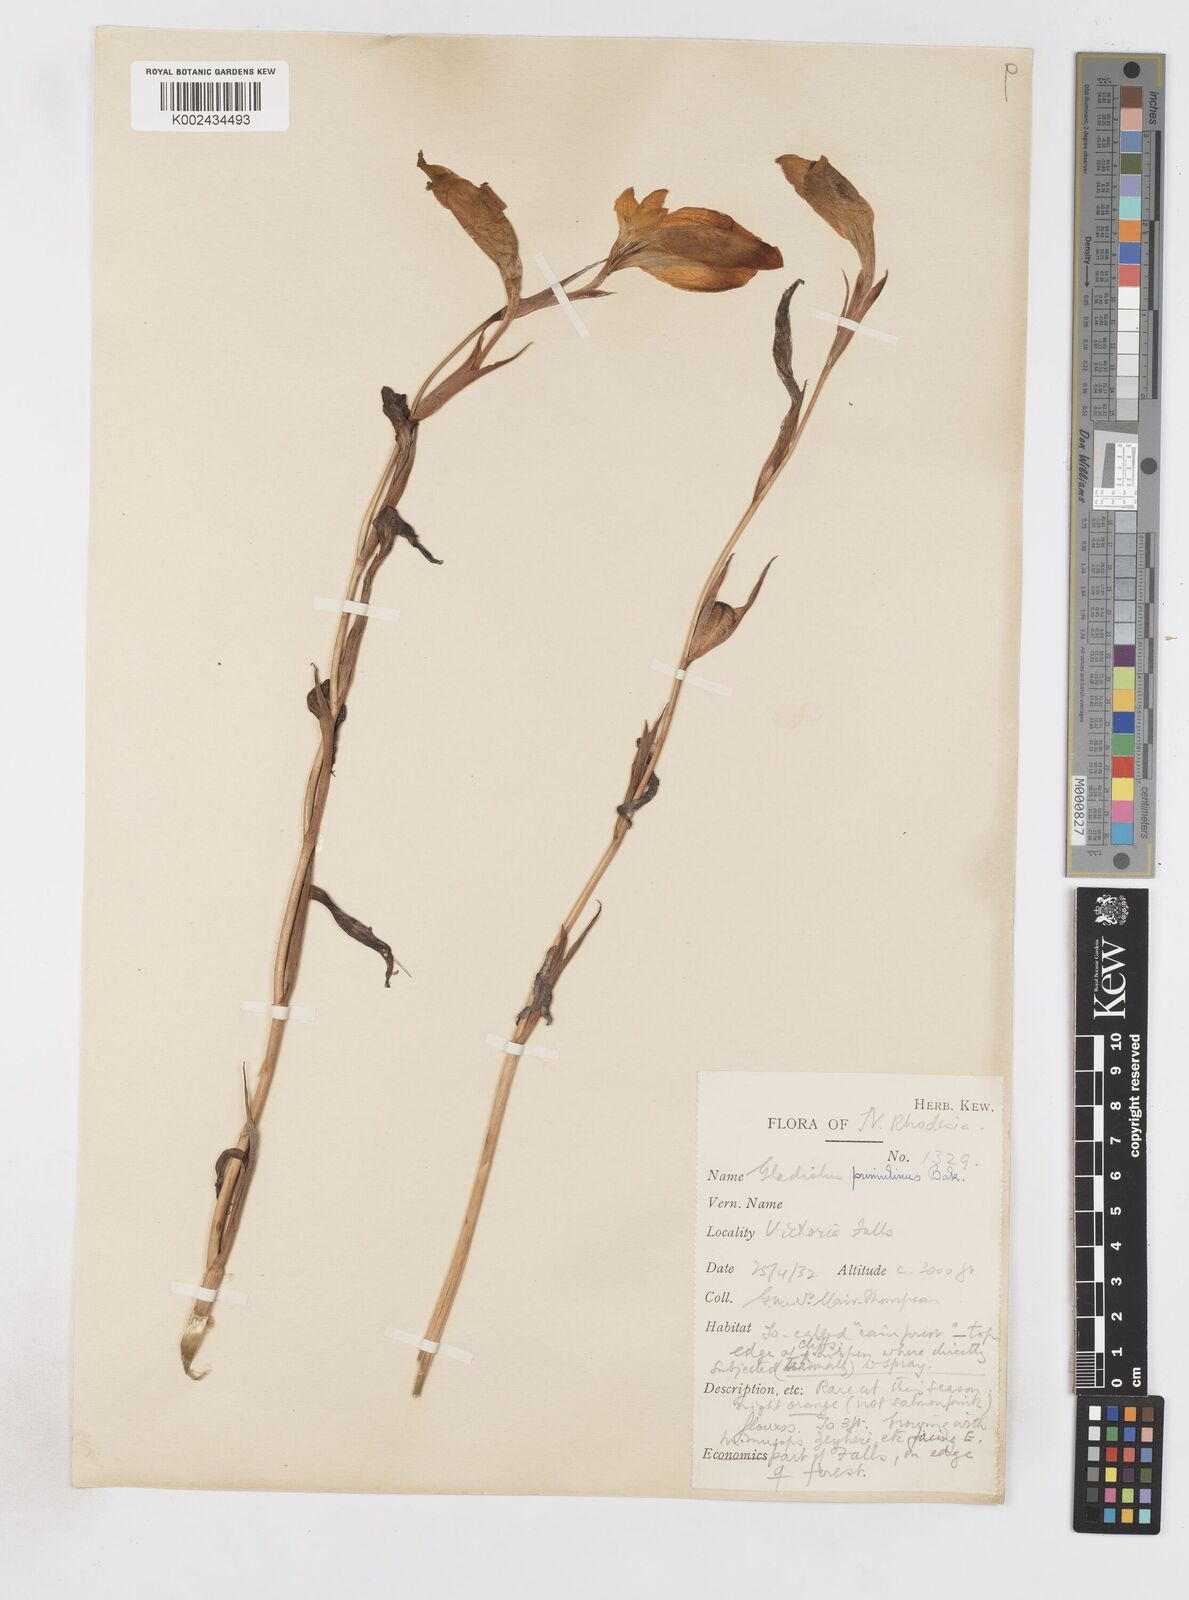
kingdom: Plantae
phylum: Tracheophyta
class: Liliopsida
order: Asparagales
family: Iridaceae
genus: Gladiolus
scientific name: Gladiolus dalenii
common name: Cornflag
